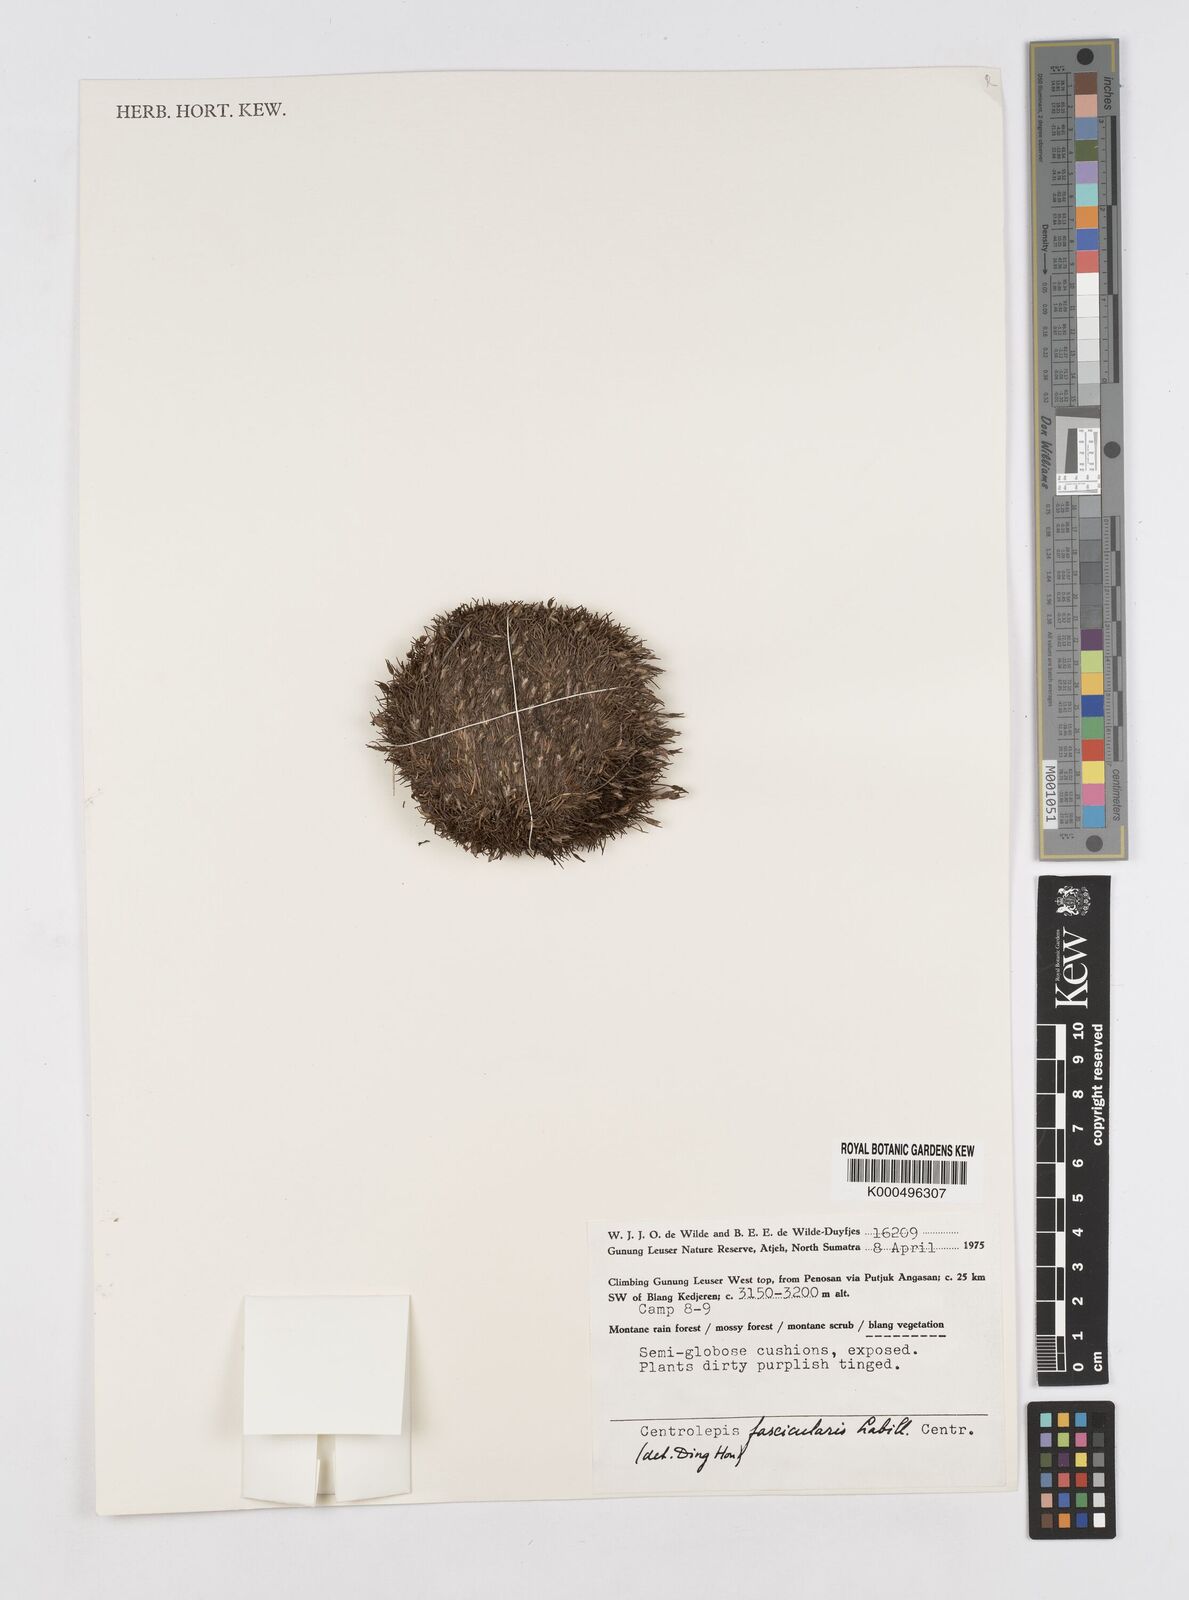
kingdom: Plantae
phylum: Tracheophyta
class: Liliopsida
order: Poales
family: Restionaceae
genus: Centrolepis
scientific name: Centrolepis philippinensis
